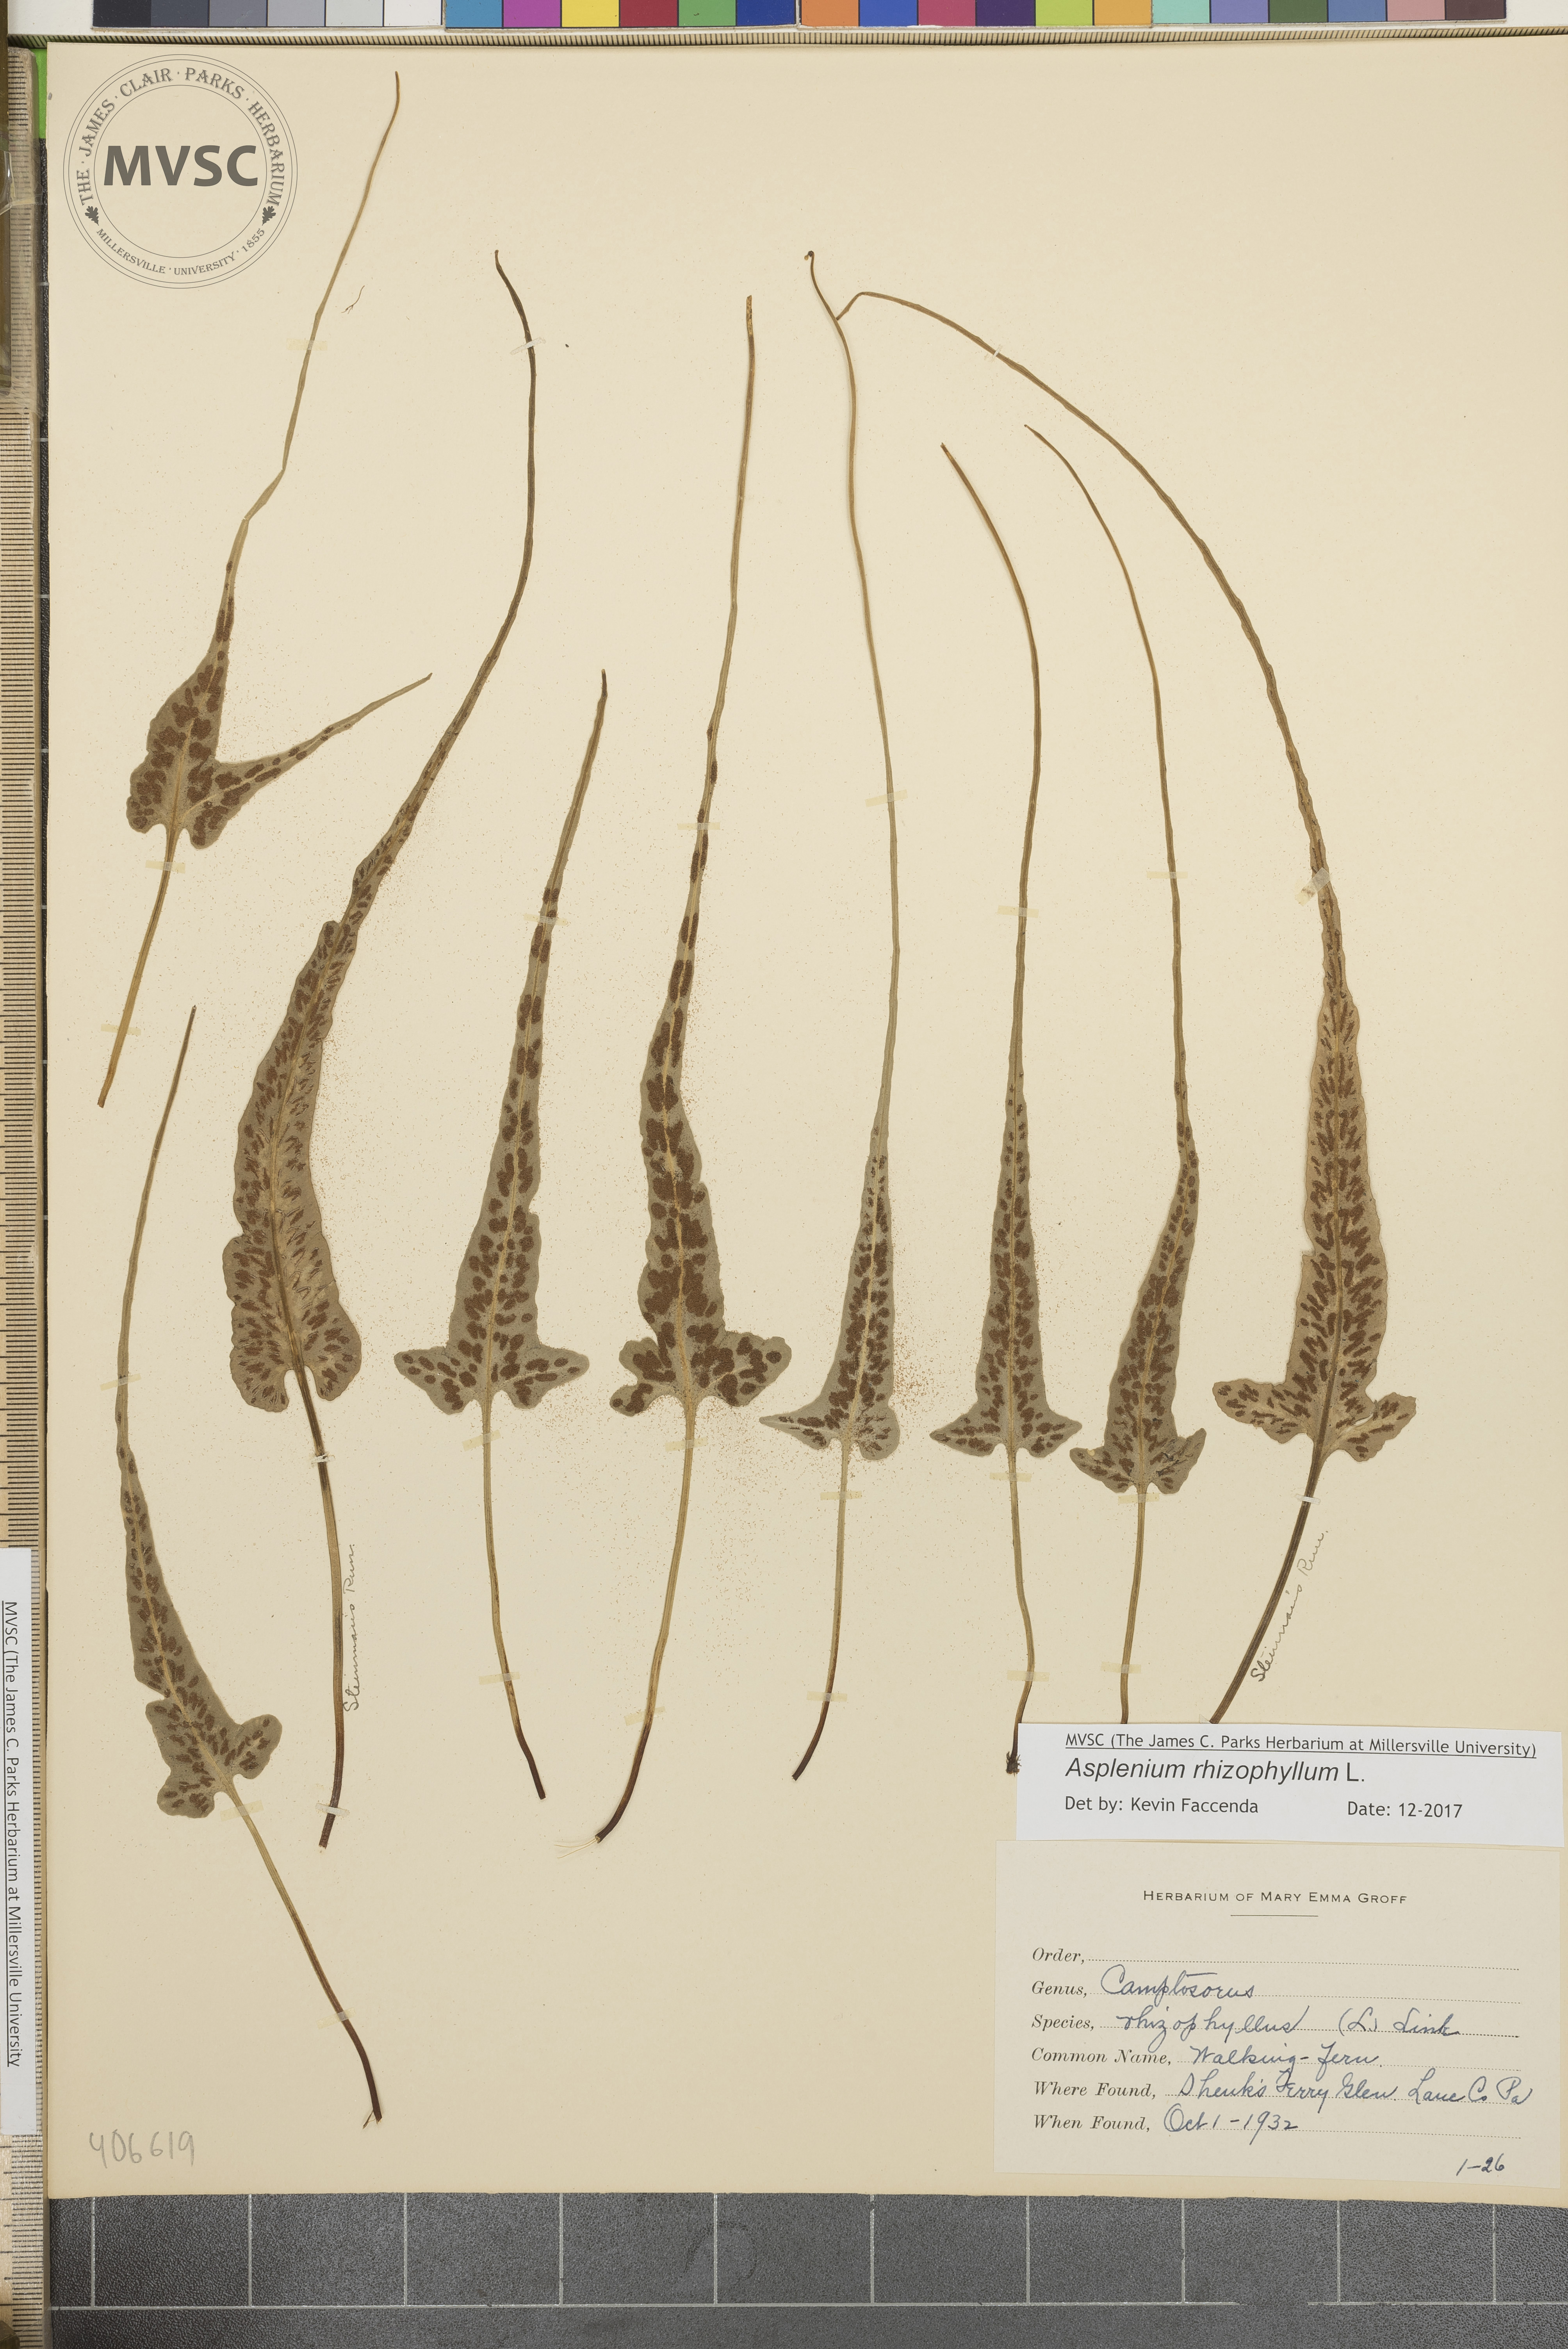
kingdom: Plantae
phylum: Tracheophyta
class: Polypodiopsida
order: Polypodiales
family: Aspleniaceae
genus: Asplenium
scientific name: Asplenium rhizophyllum
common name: Walking fern
